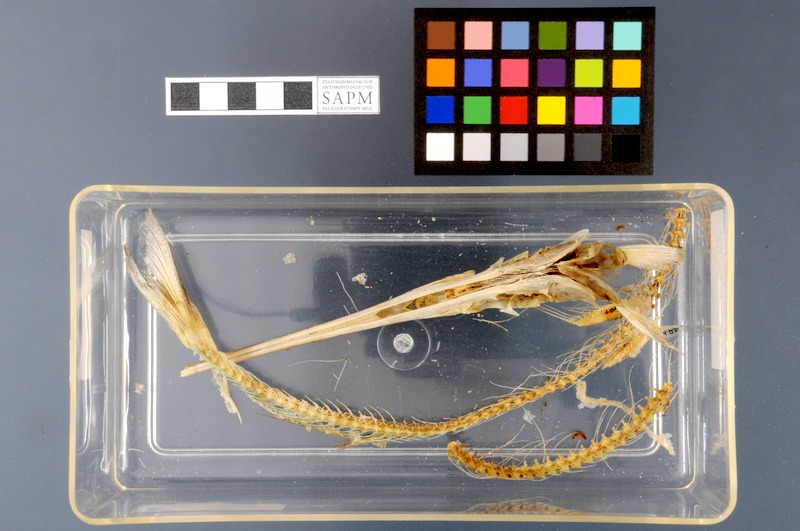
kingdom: Animalia
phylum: Chordata
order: Beloniformes
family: Belonidae
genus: Belone
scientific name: Belone belone
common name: Garfish
